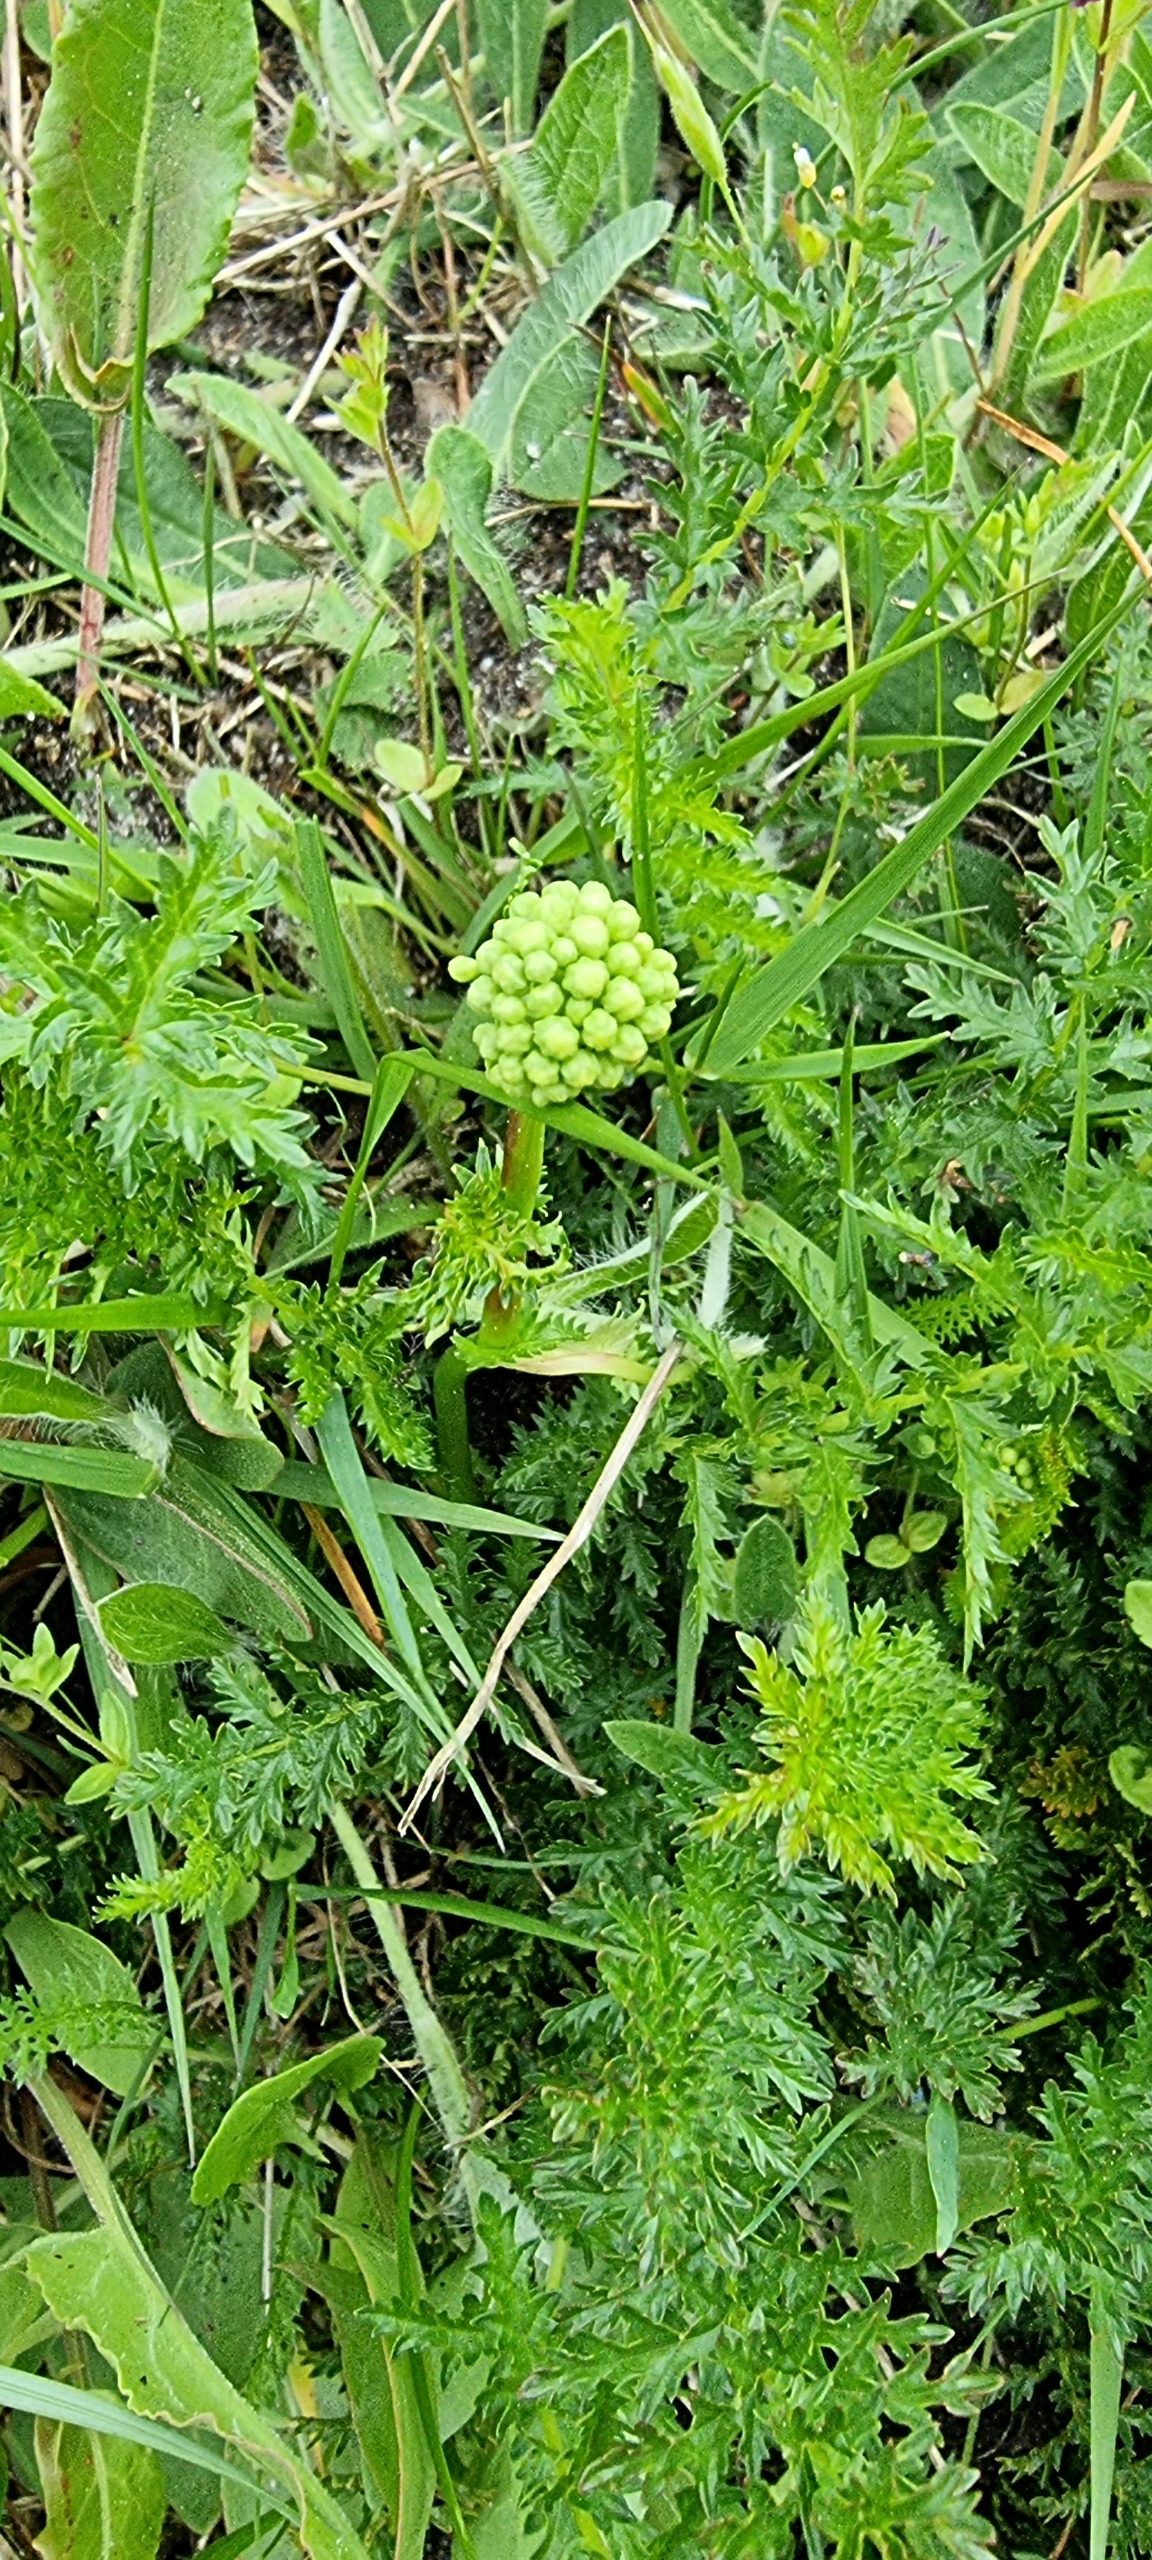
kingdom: Plantae
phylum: Tracheophyta
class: Magnoliopsida
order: Rosales
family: Rosaceae
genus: Filipendula
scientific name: Filipendula vulgaris
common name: Knoldet mjødurt
